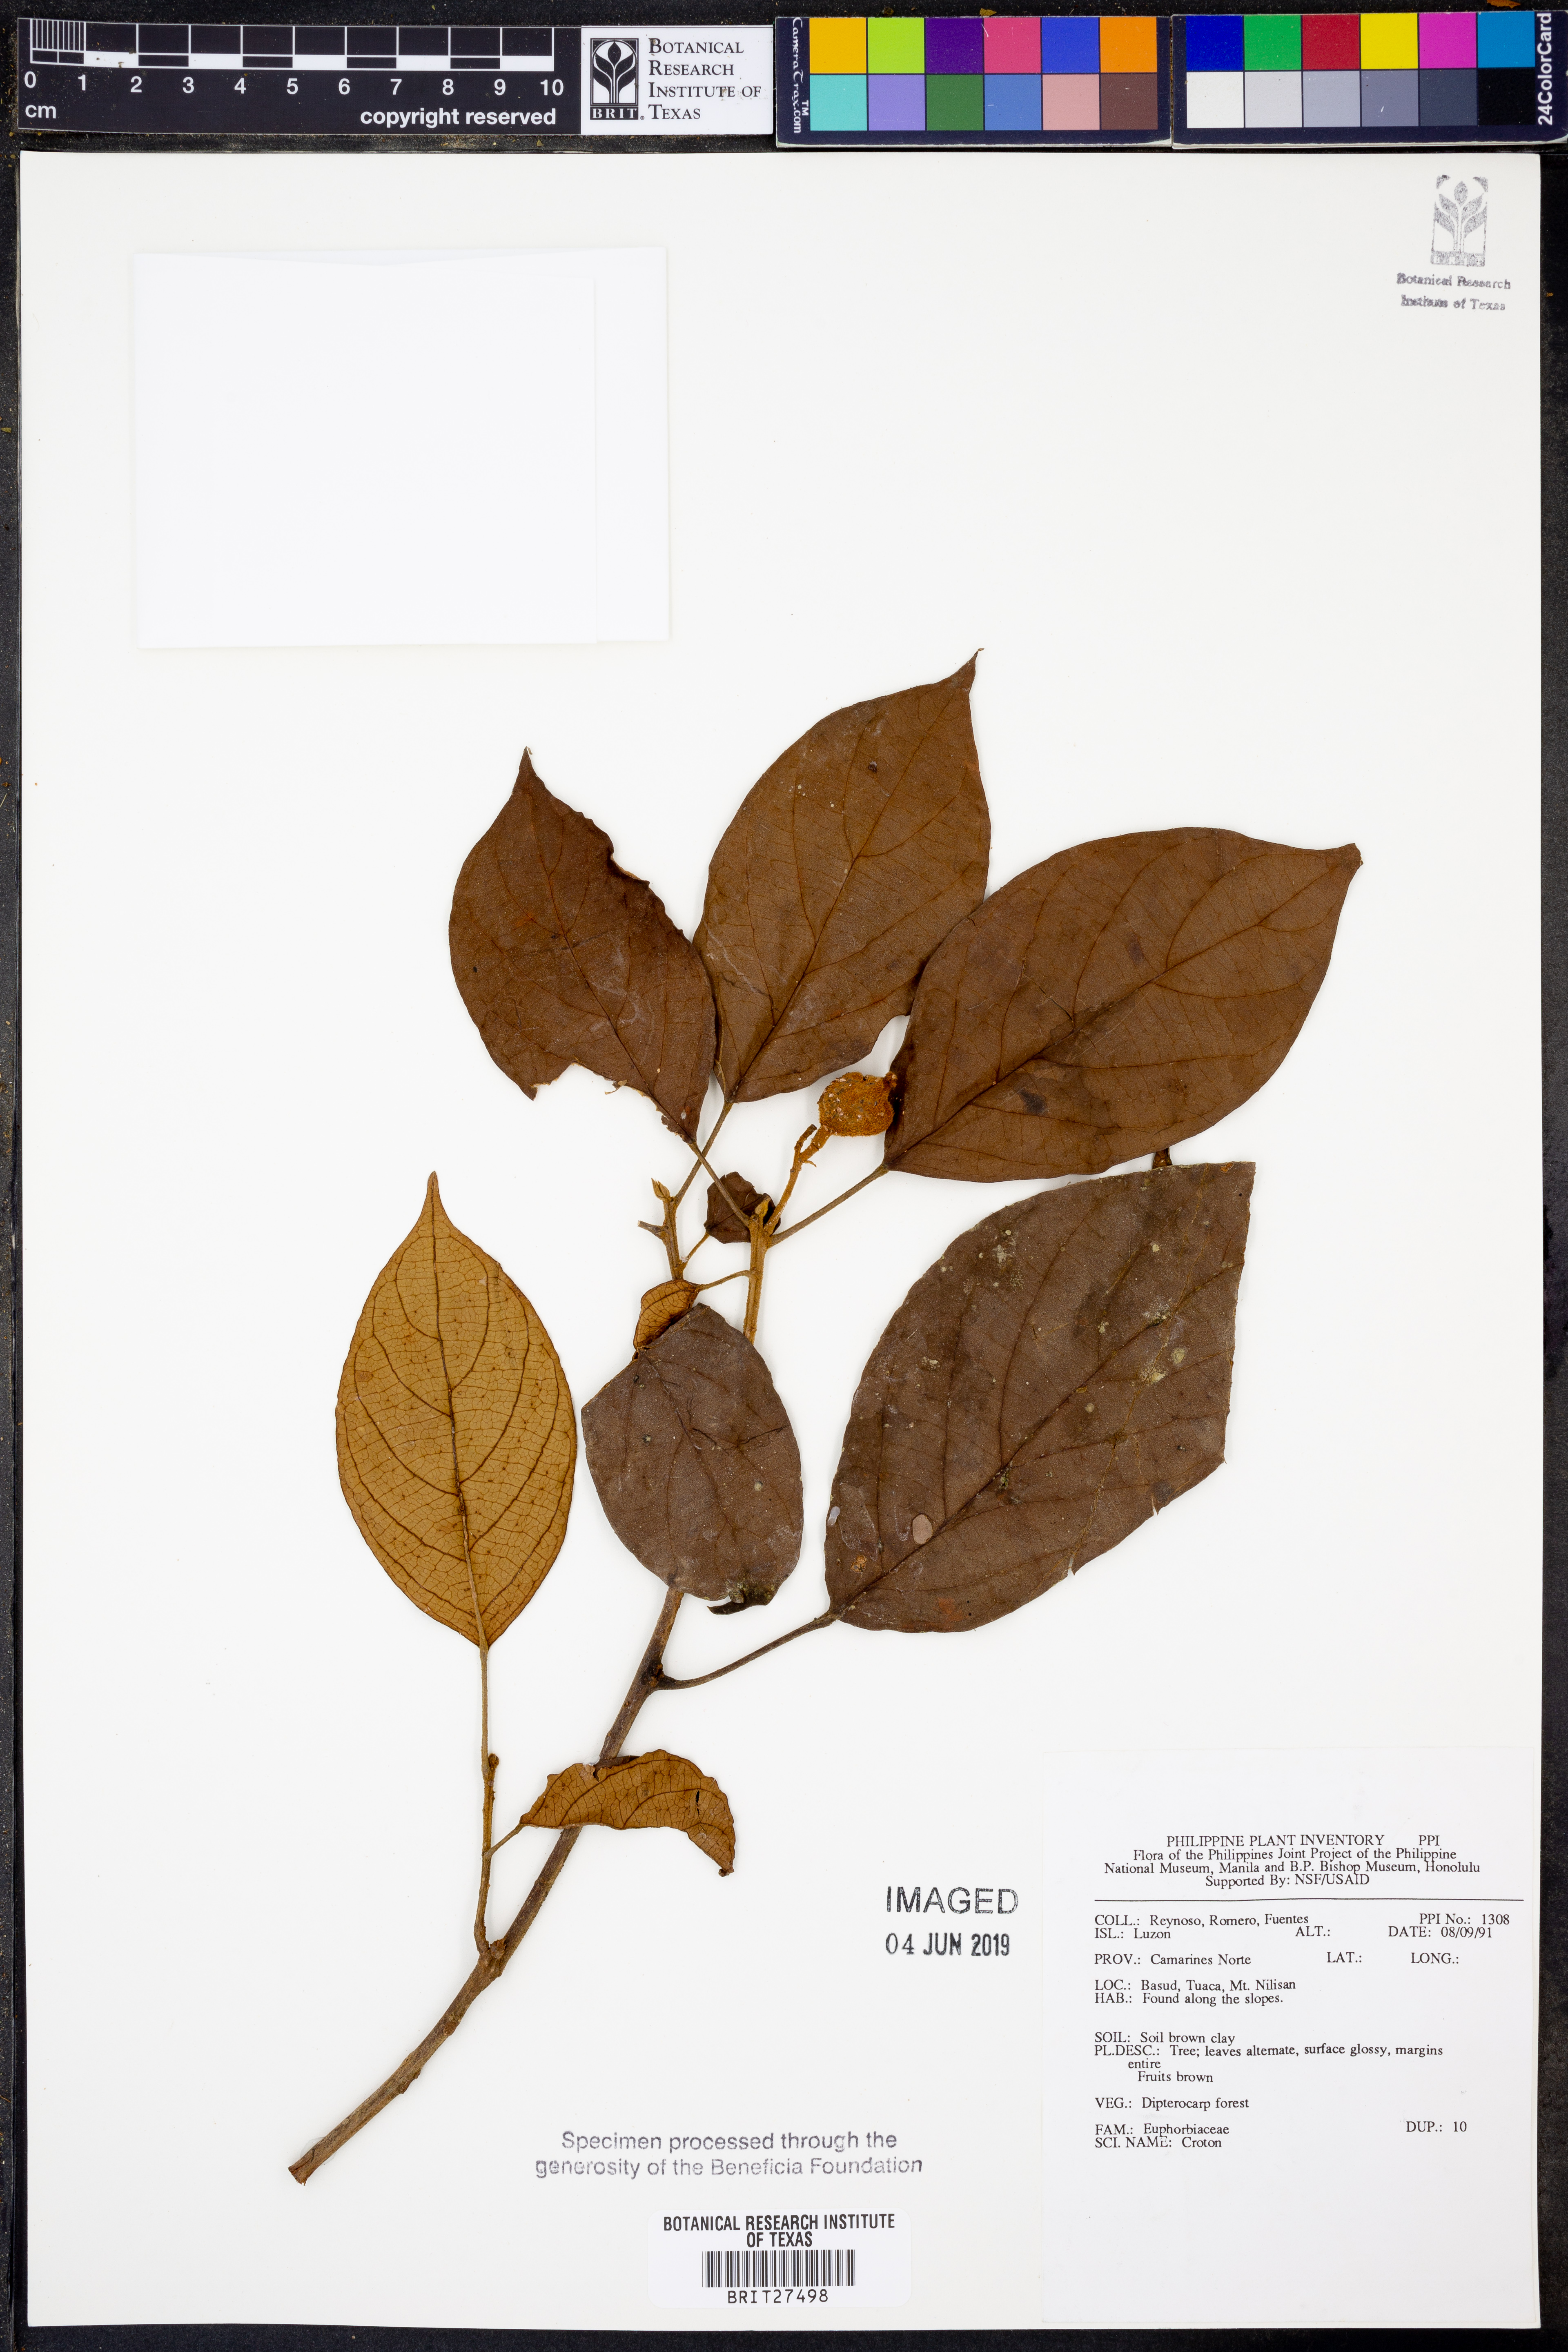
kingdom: Plantae
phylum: Tracheophyta
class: Magnoliopsida
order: Malpighiales
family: Euphorbiaceae
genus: Croton
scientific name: Croton
